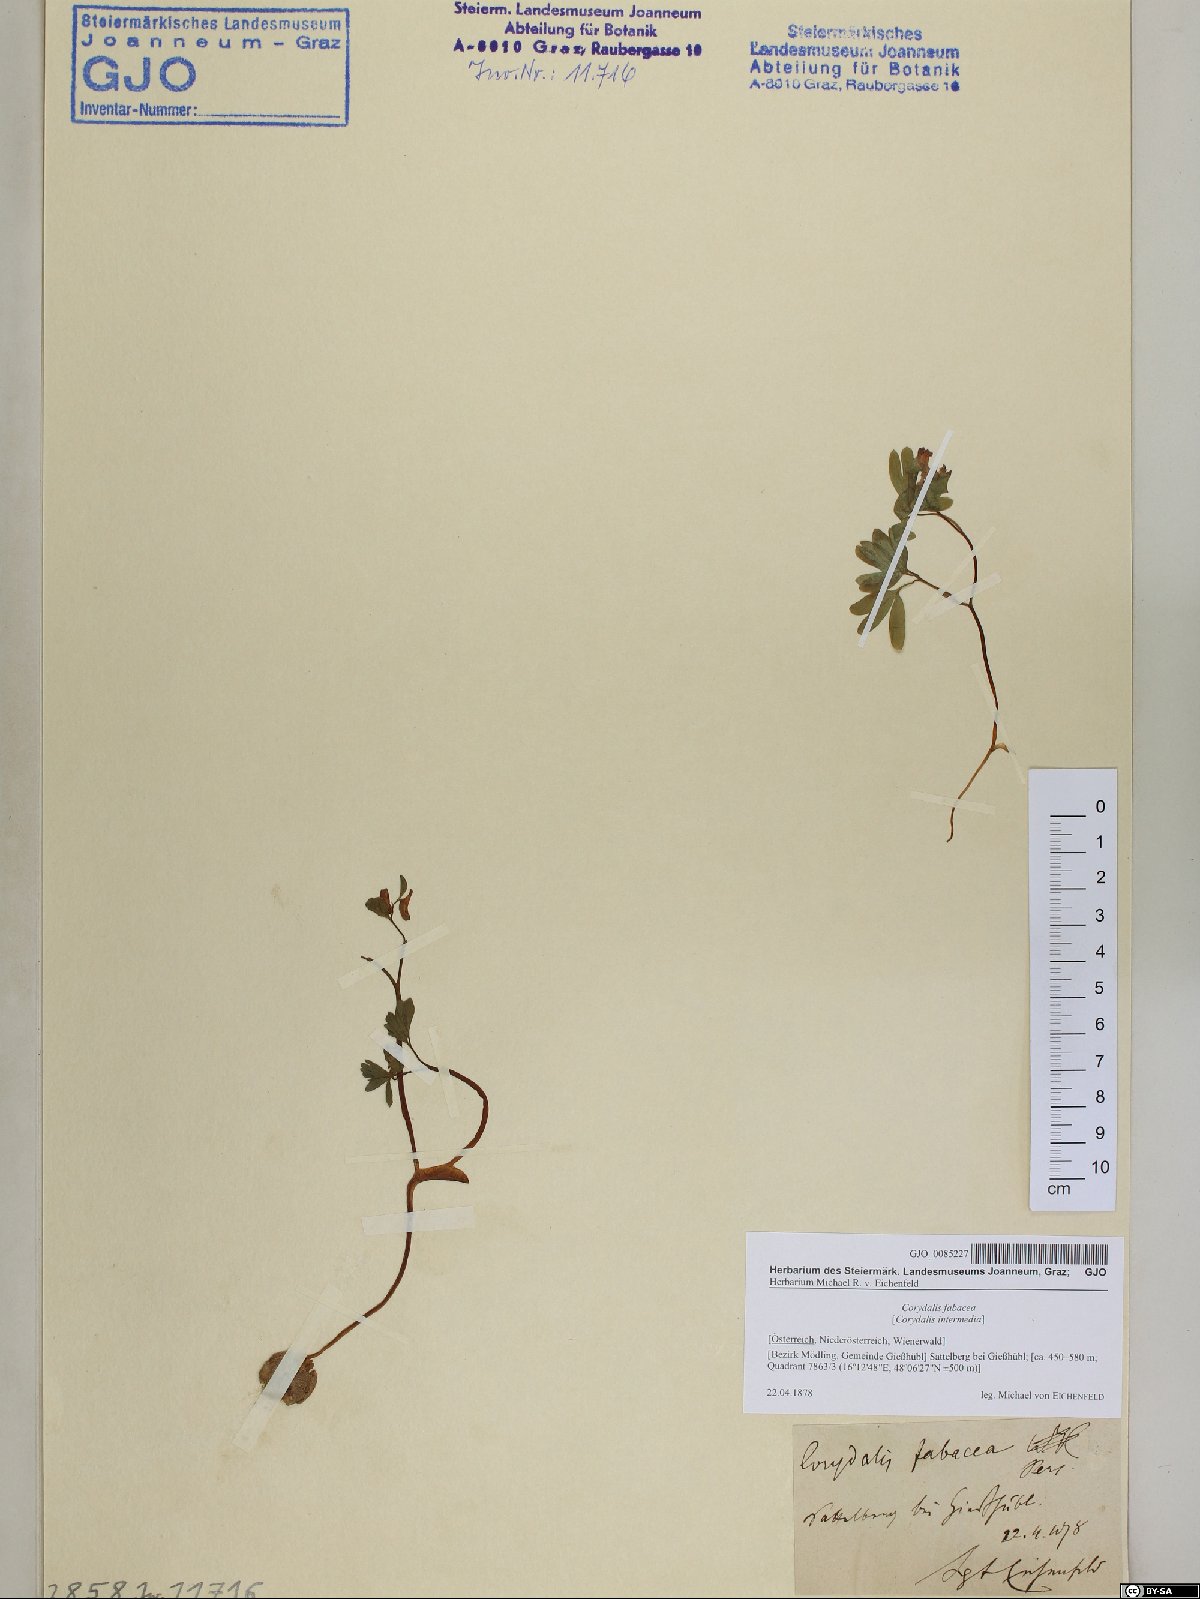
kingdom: Plantae
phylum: Tracheophyta
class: Magnoliopsida
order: Ranunculales
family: Papaveraceae
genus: Corydalis
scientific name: Corydalis intermedia
